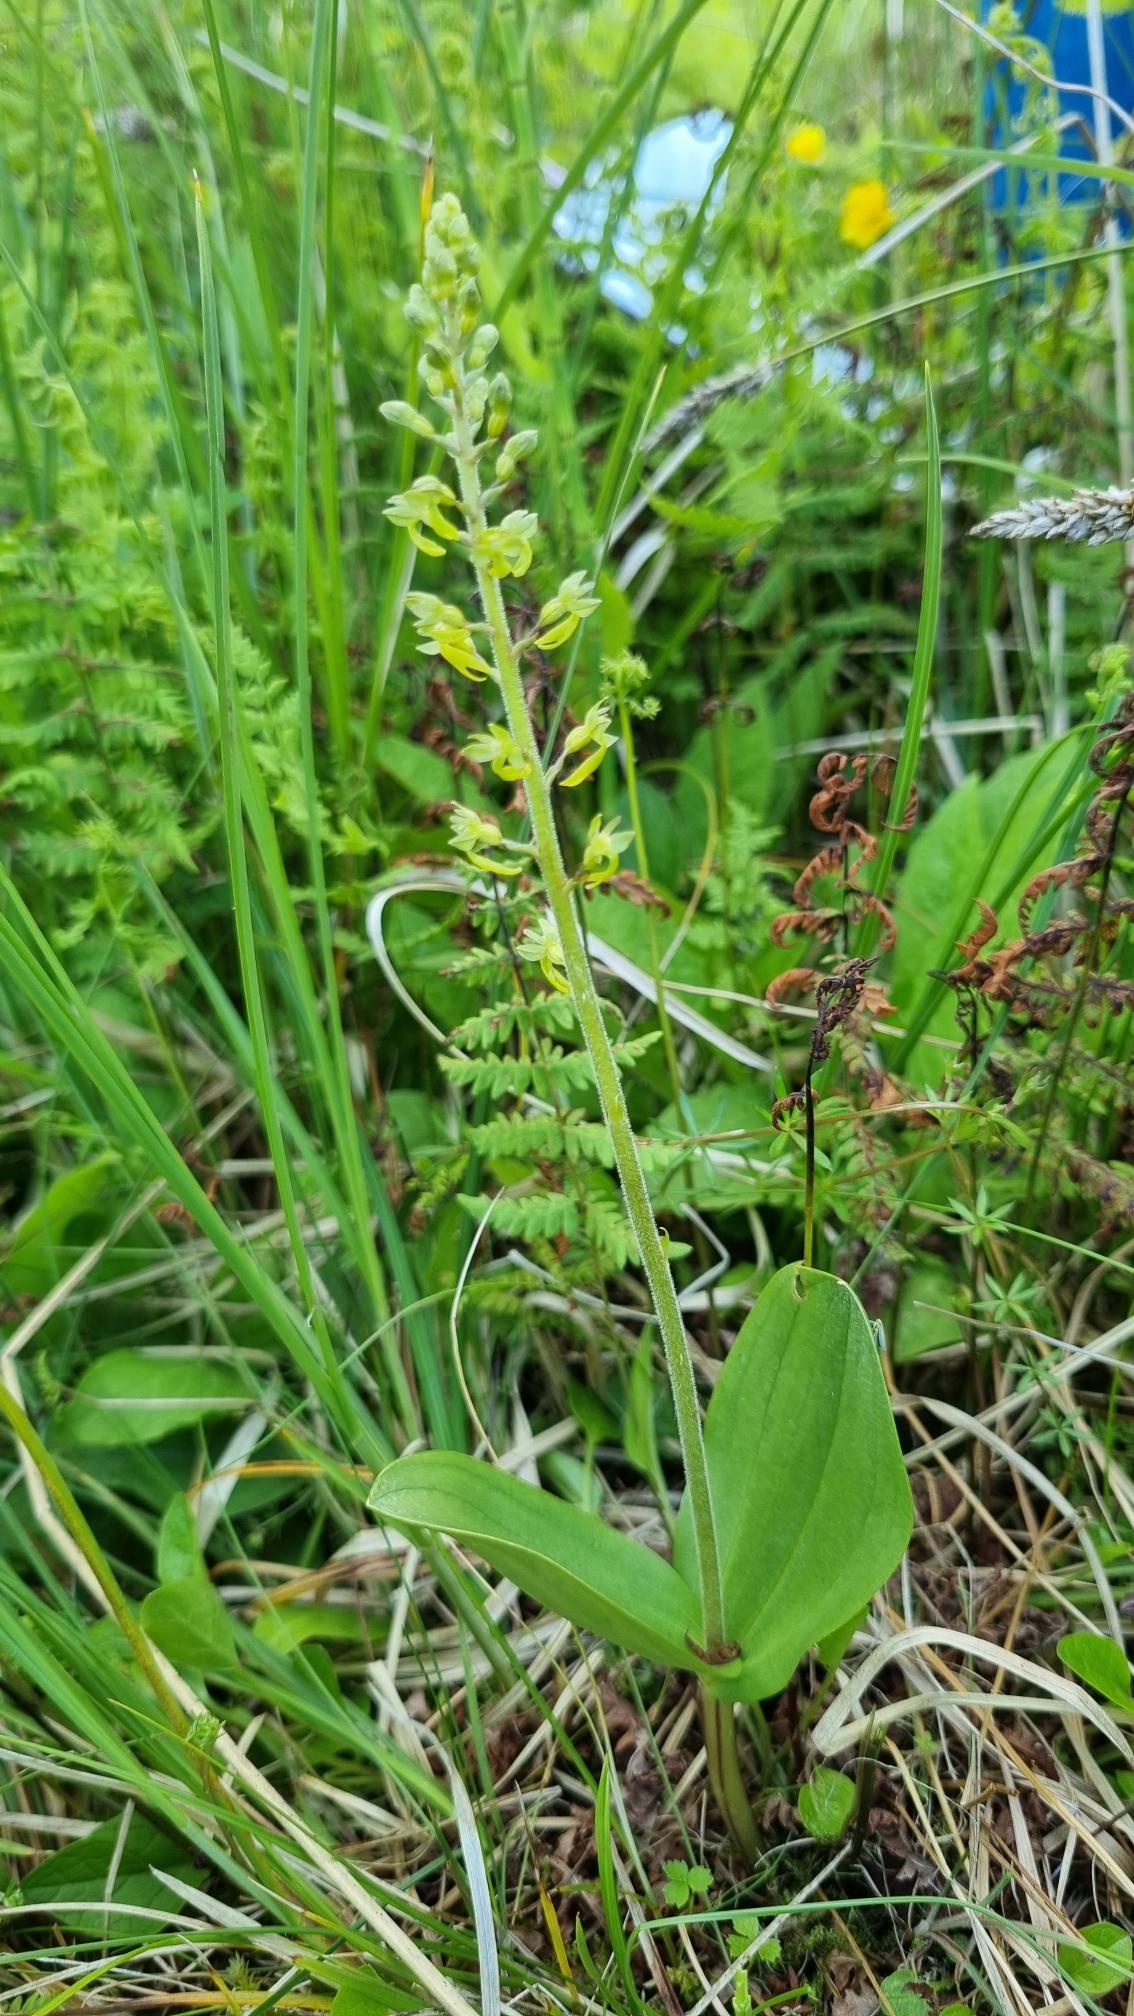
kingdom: Plantae
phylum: Tracheophyta
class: Liliopsida
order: Asparagales
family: Orchidaceae
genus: Neottia
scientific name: Neottia ovata
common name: Ægbladet fliglæbe
